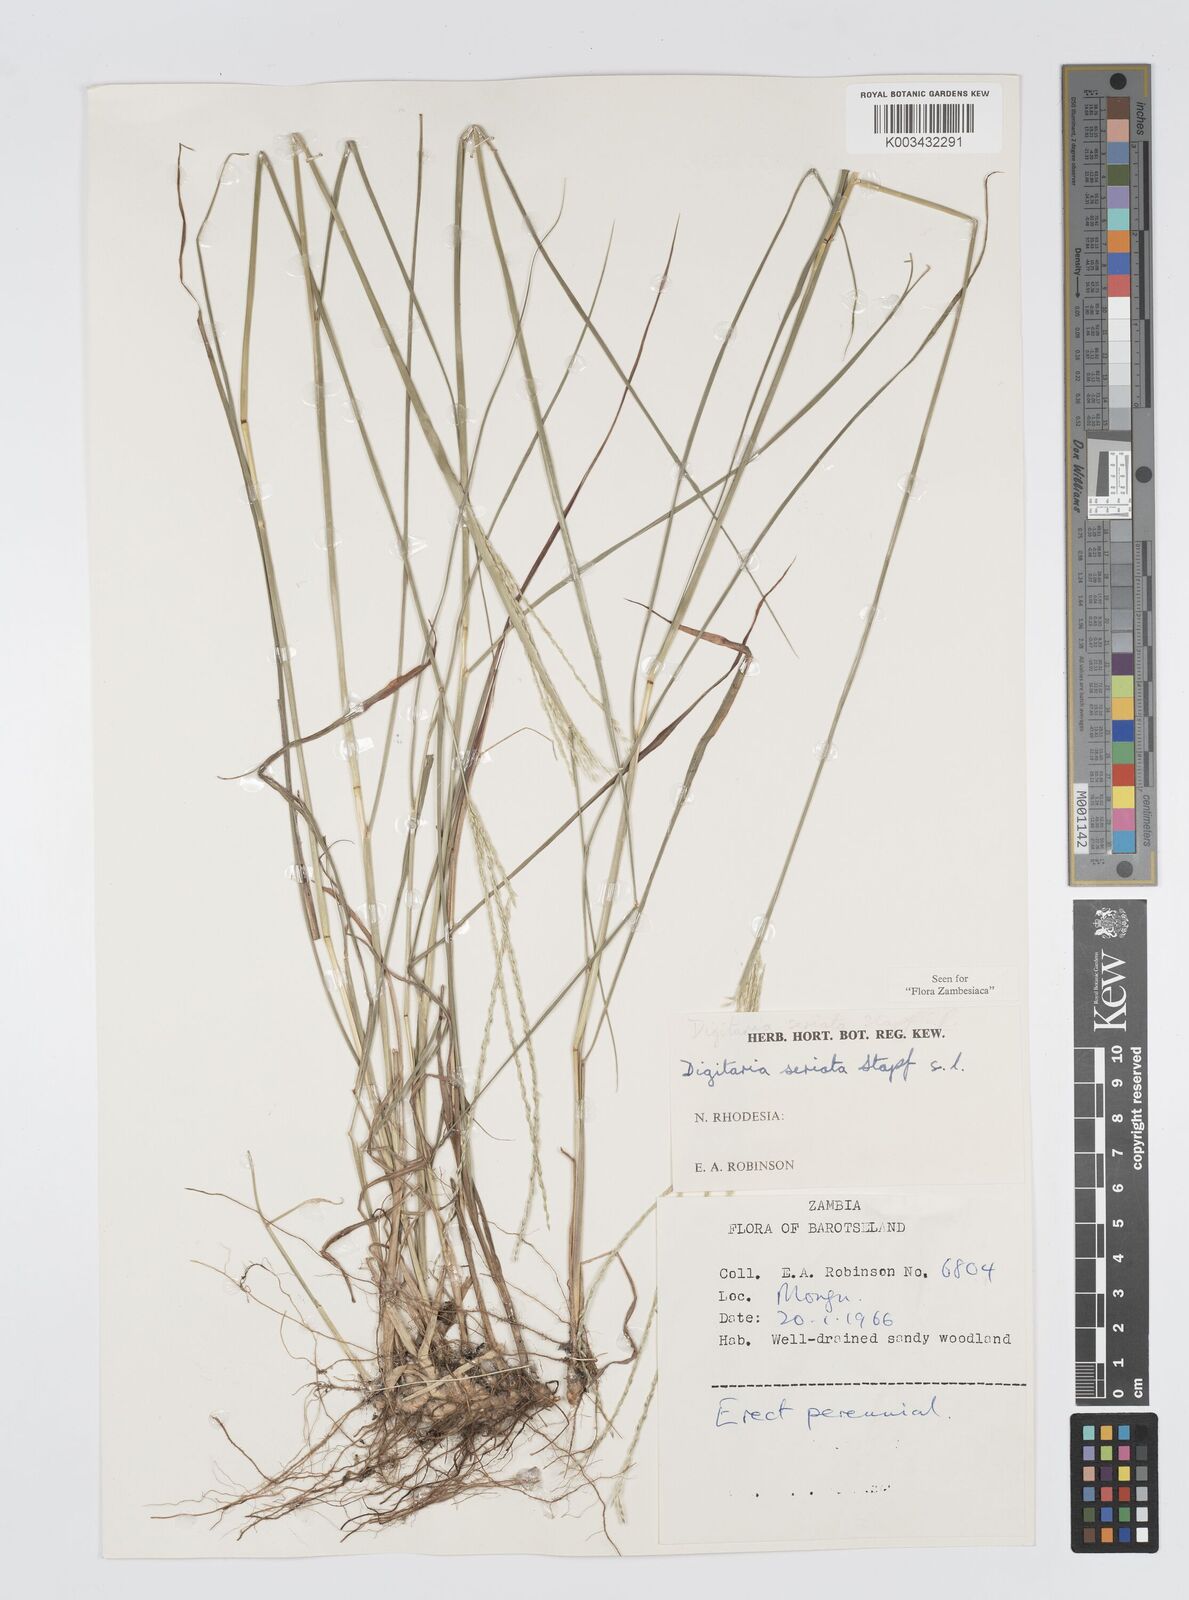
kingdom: Plantae
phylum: Tracheophyta
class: Liliopsida
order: Poales
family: Poaceae
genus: Digitaria
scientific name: Digitaria seriata
